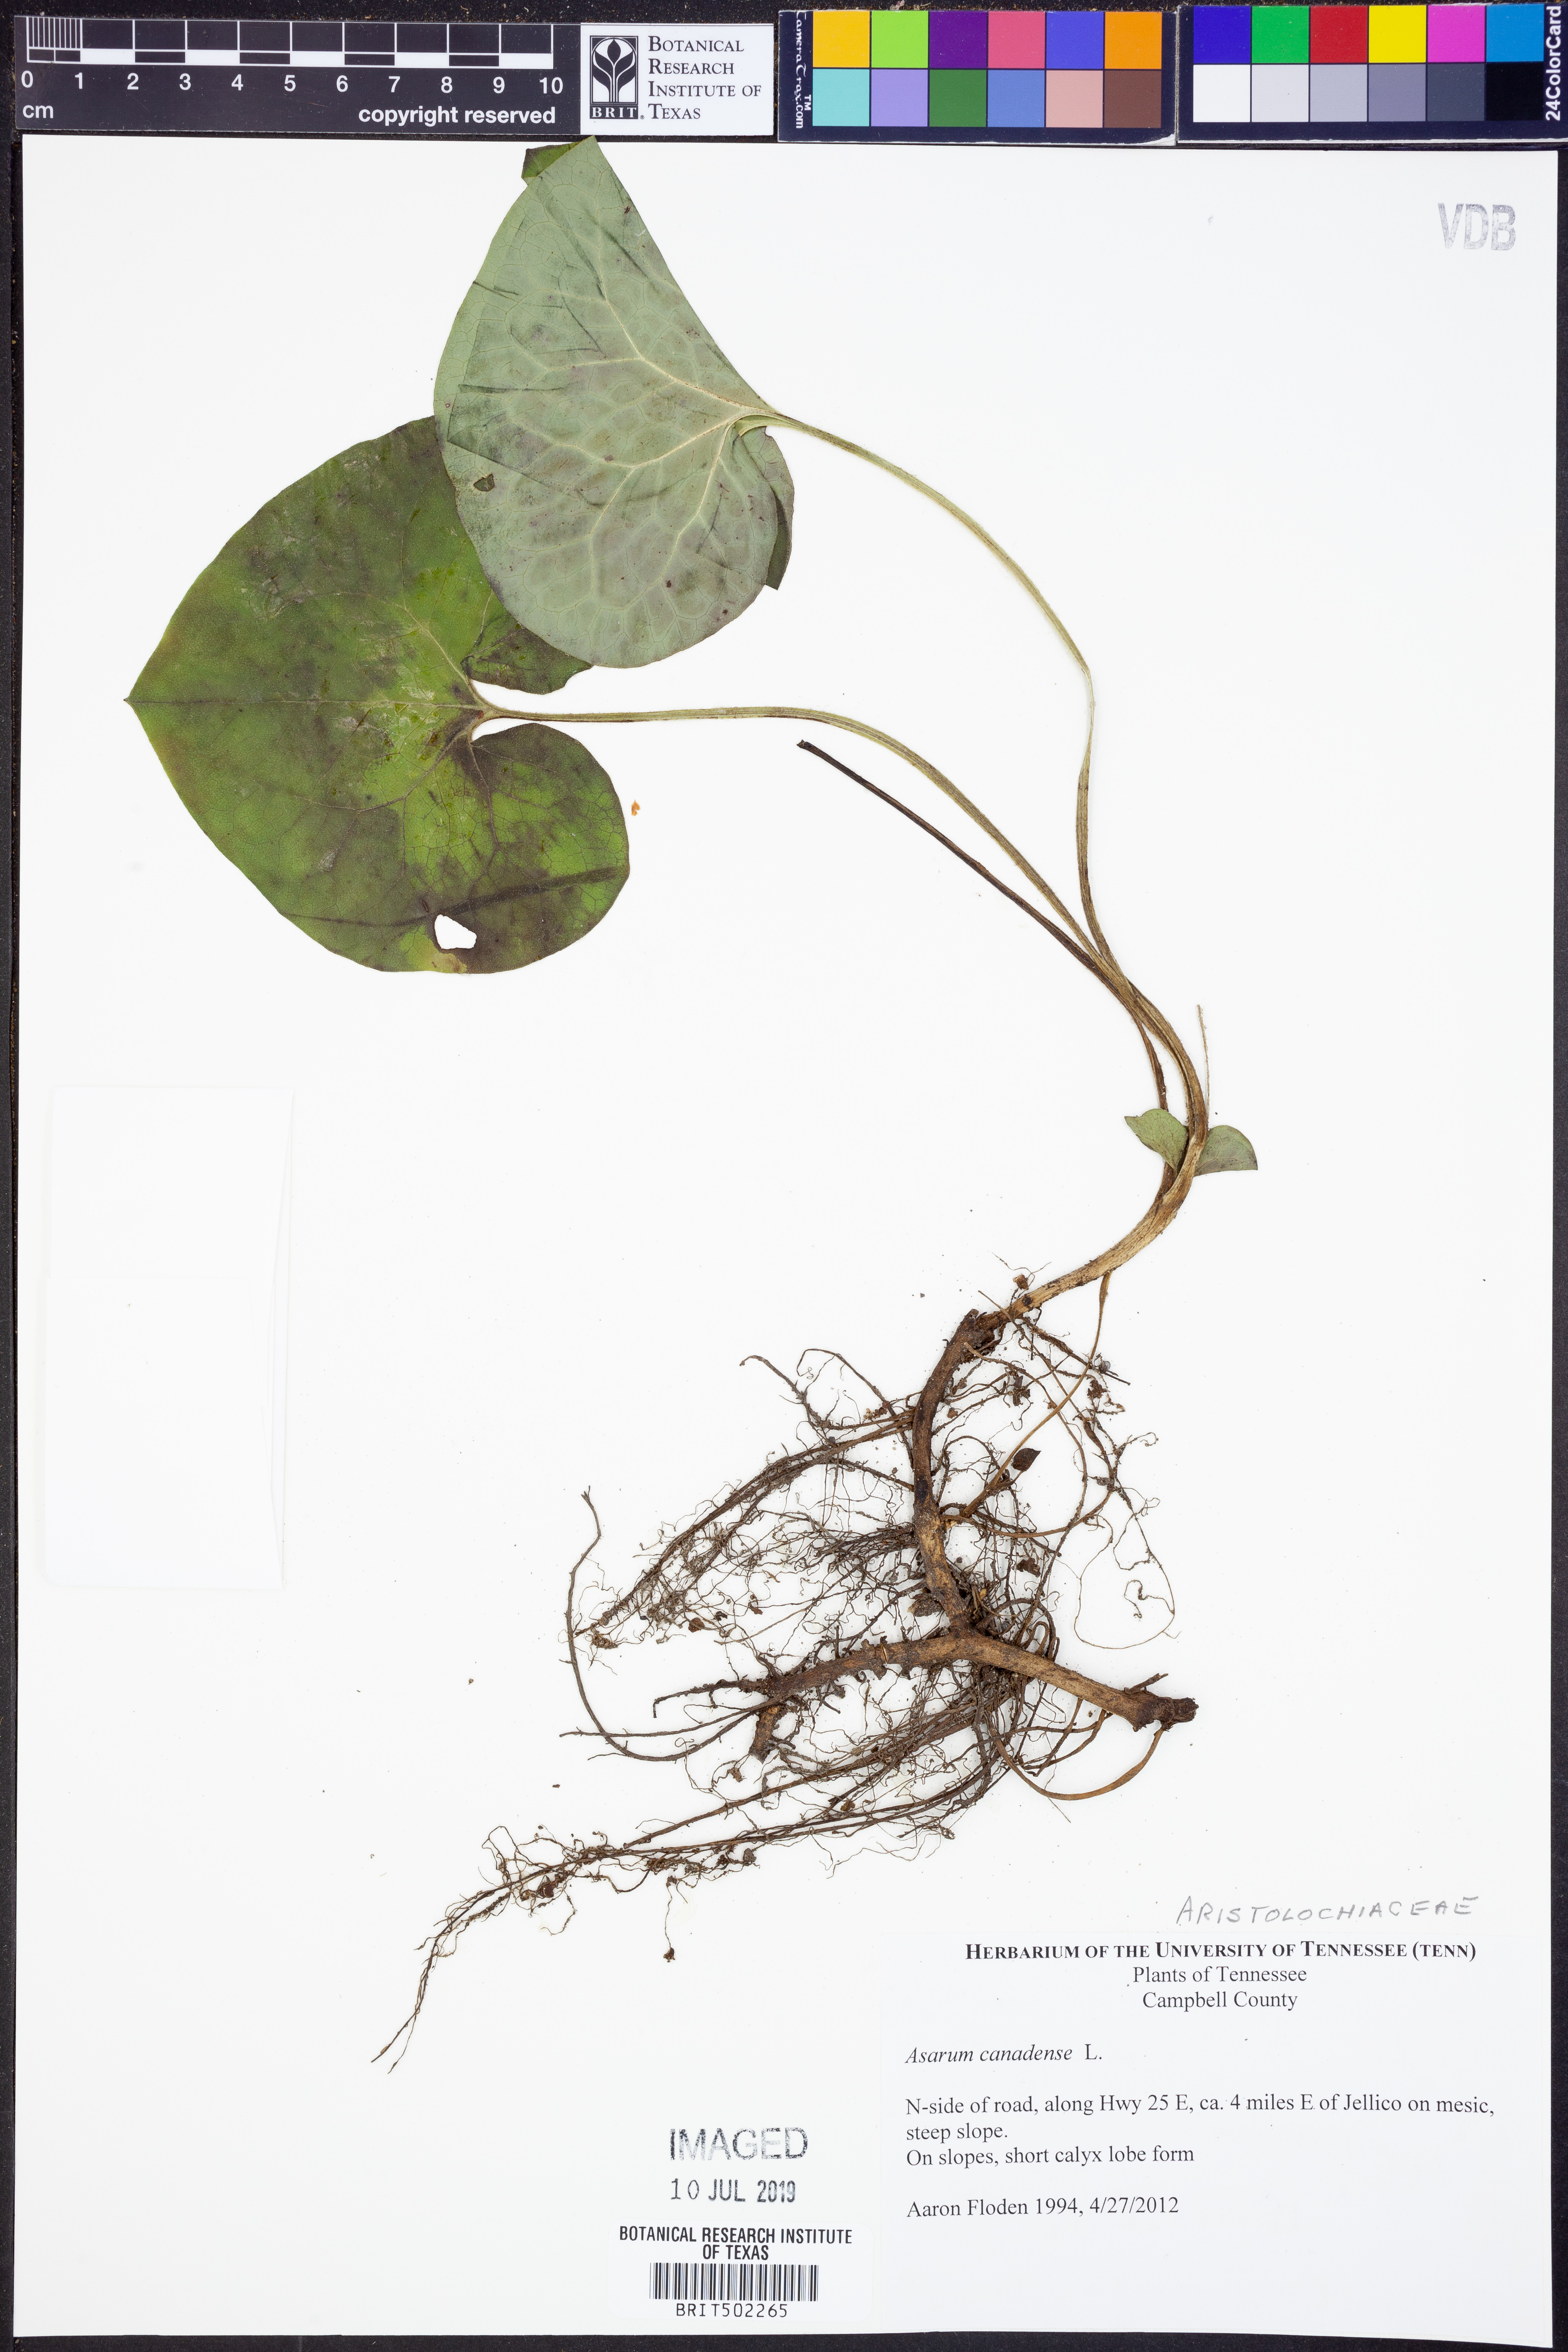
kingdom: Plantae
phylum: Tracheophyta
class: Magnoliopsida
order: Piperales
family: Aristolochiaceae
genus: Asarum
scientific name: Asarum canadense
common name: Wild ginger
